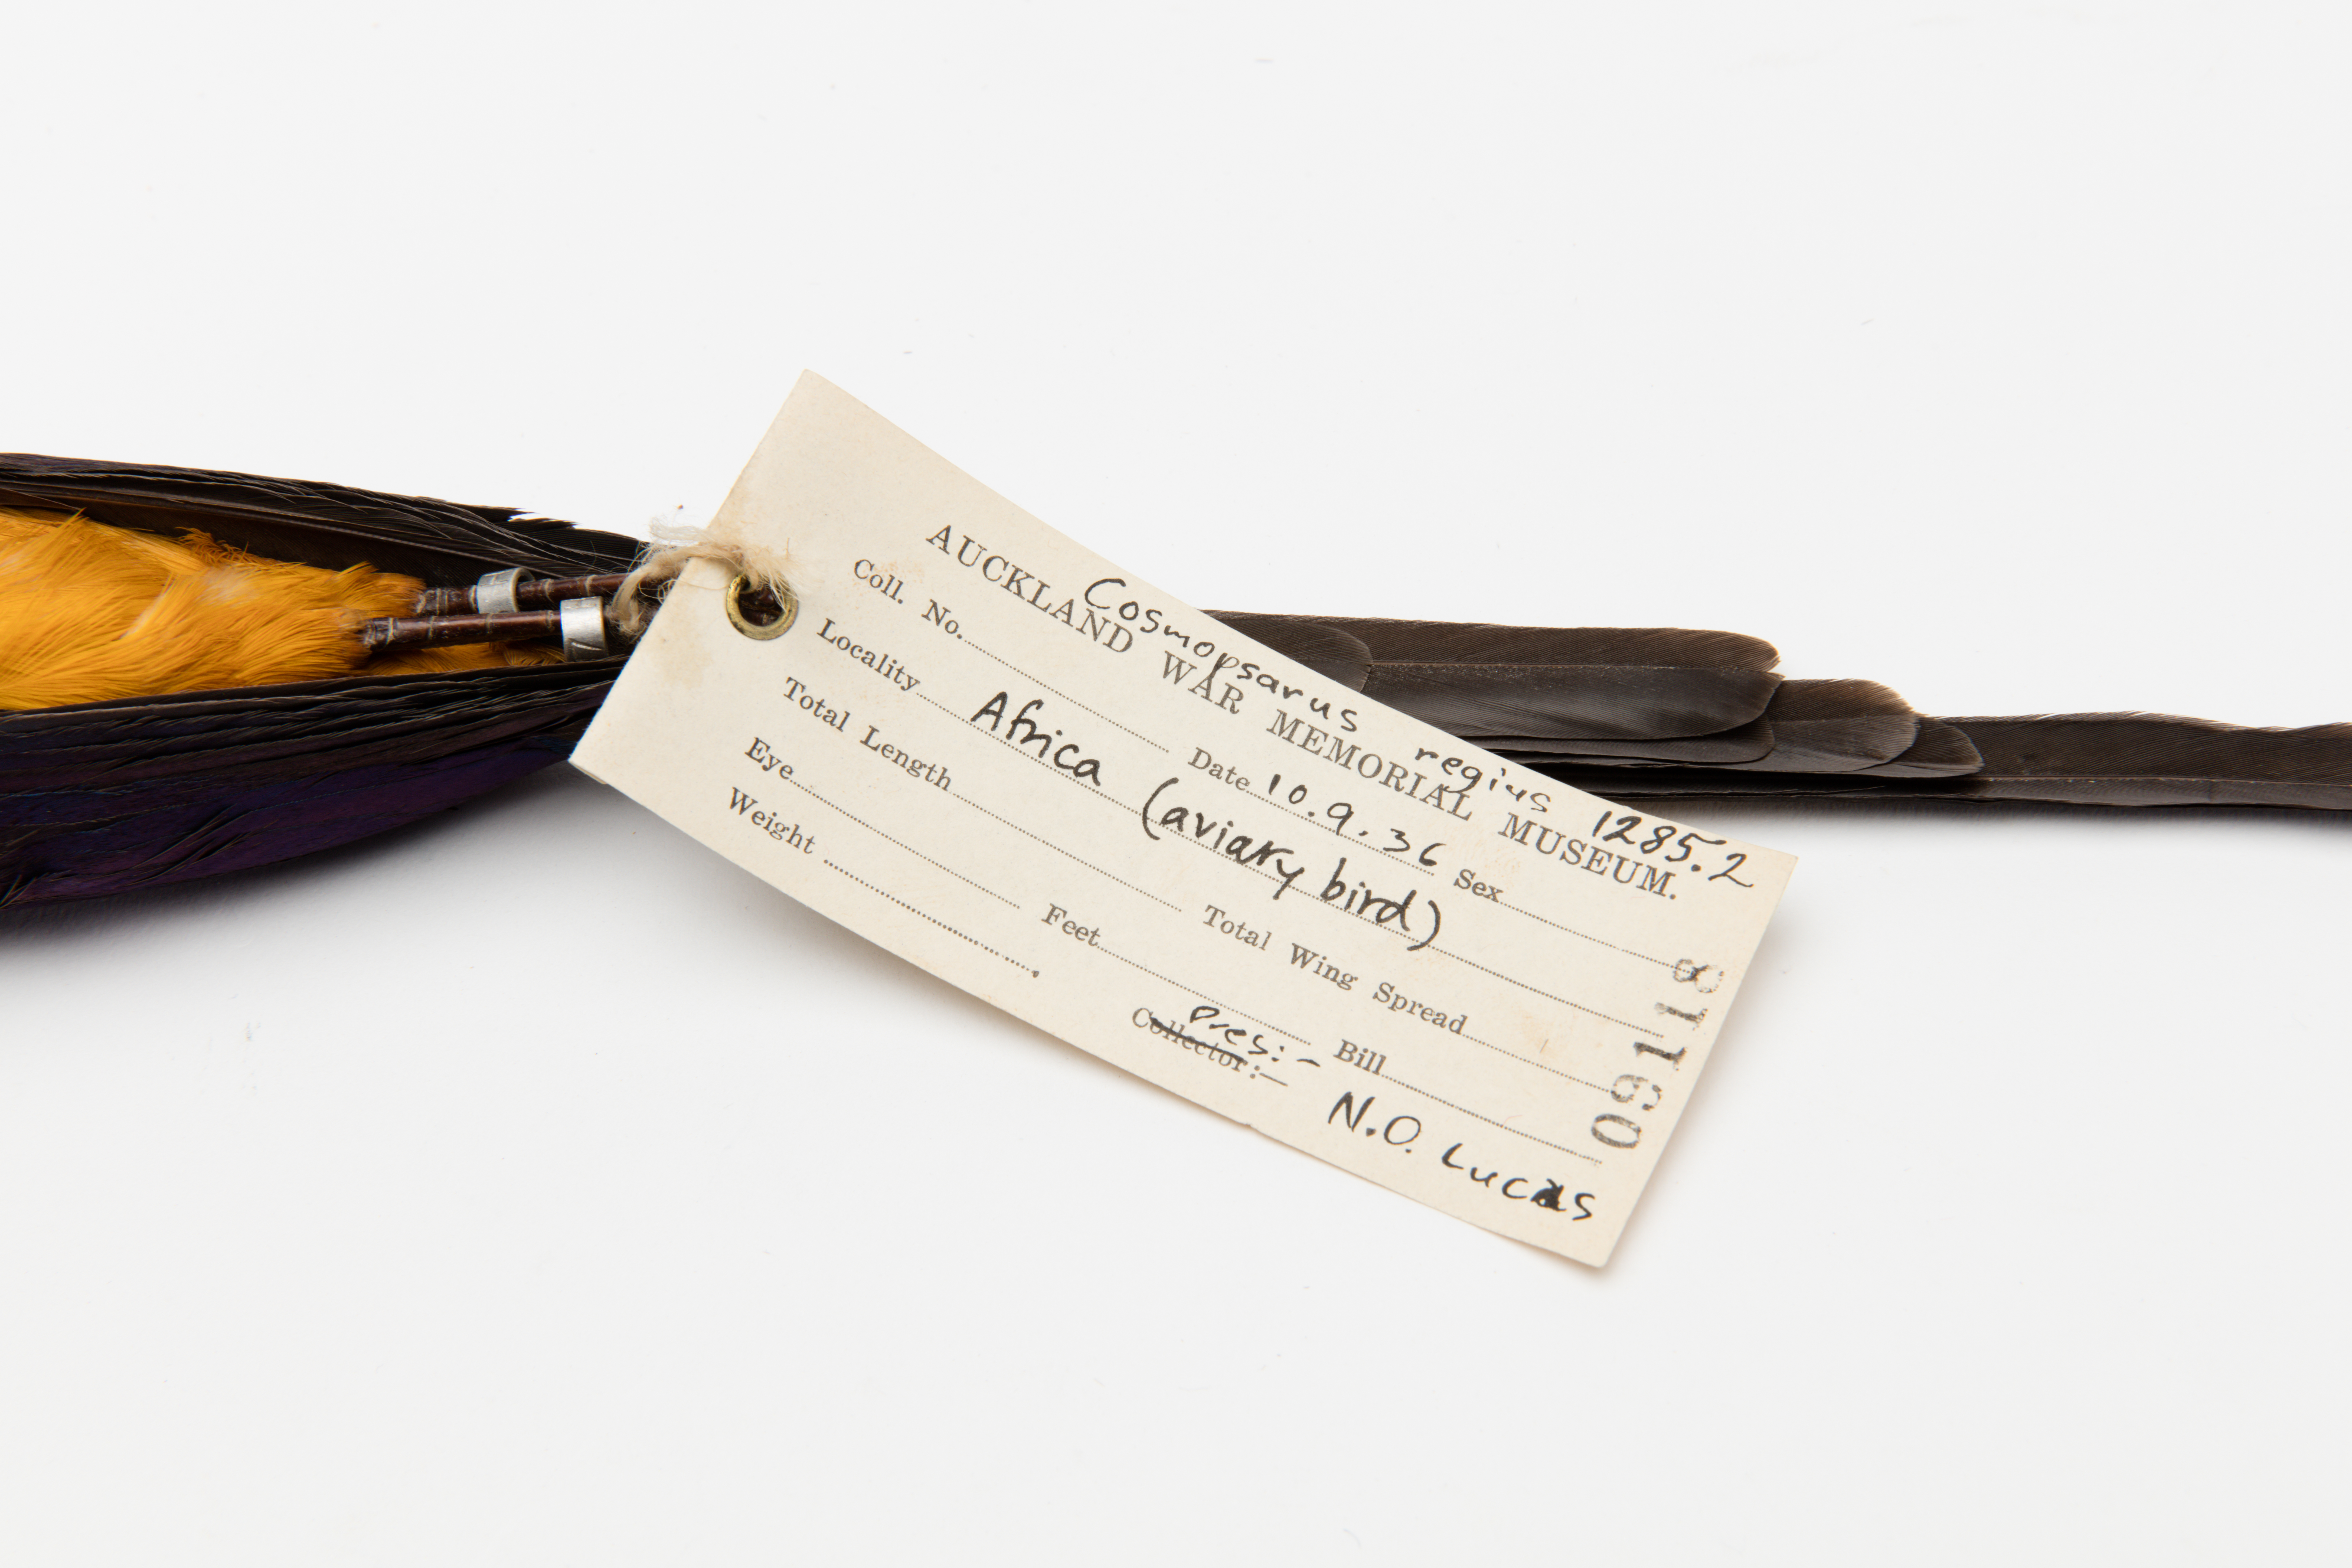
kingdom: Animalia
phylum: Chordata
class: Aves
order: Passeriformes
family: Sturnidae
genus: Lamprotornis
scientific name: Lamprotornis regius
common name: Golden-breasted starling
